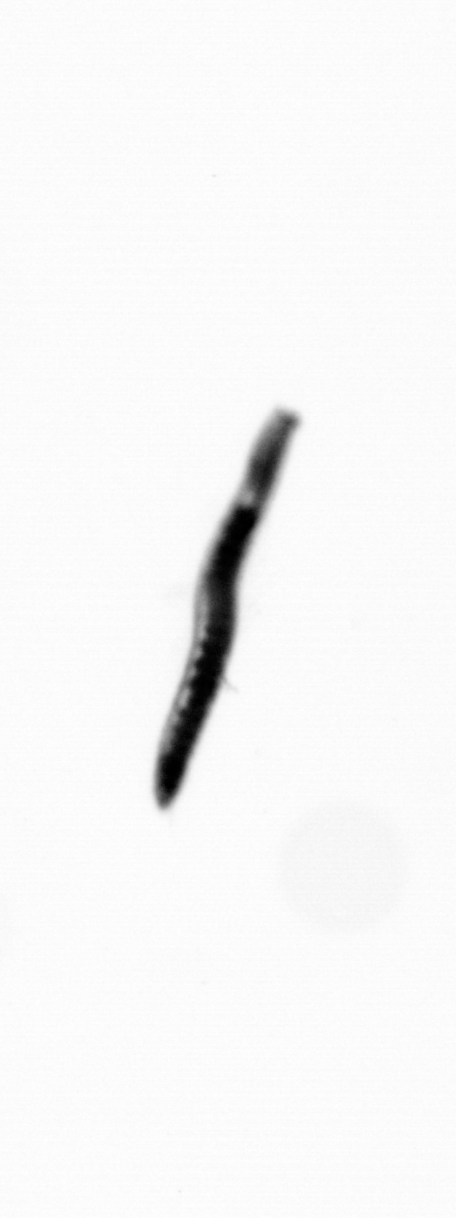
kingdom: Animalia
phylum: Annelida
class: Polychaeta
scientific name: Polychaeta
